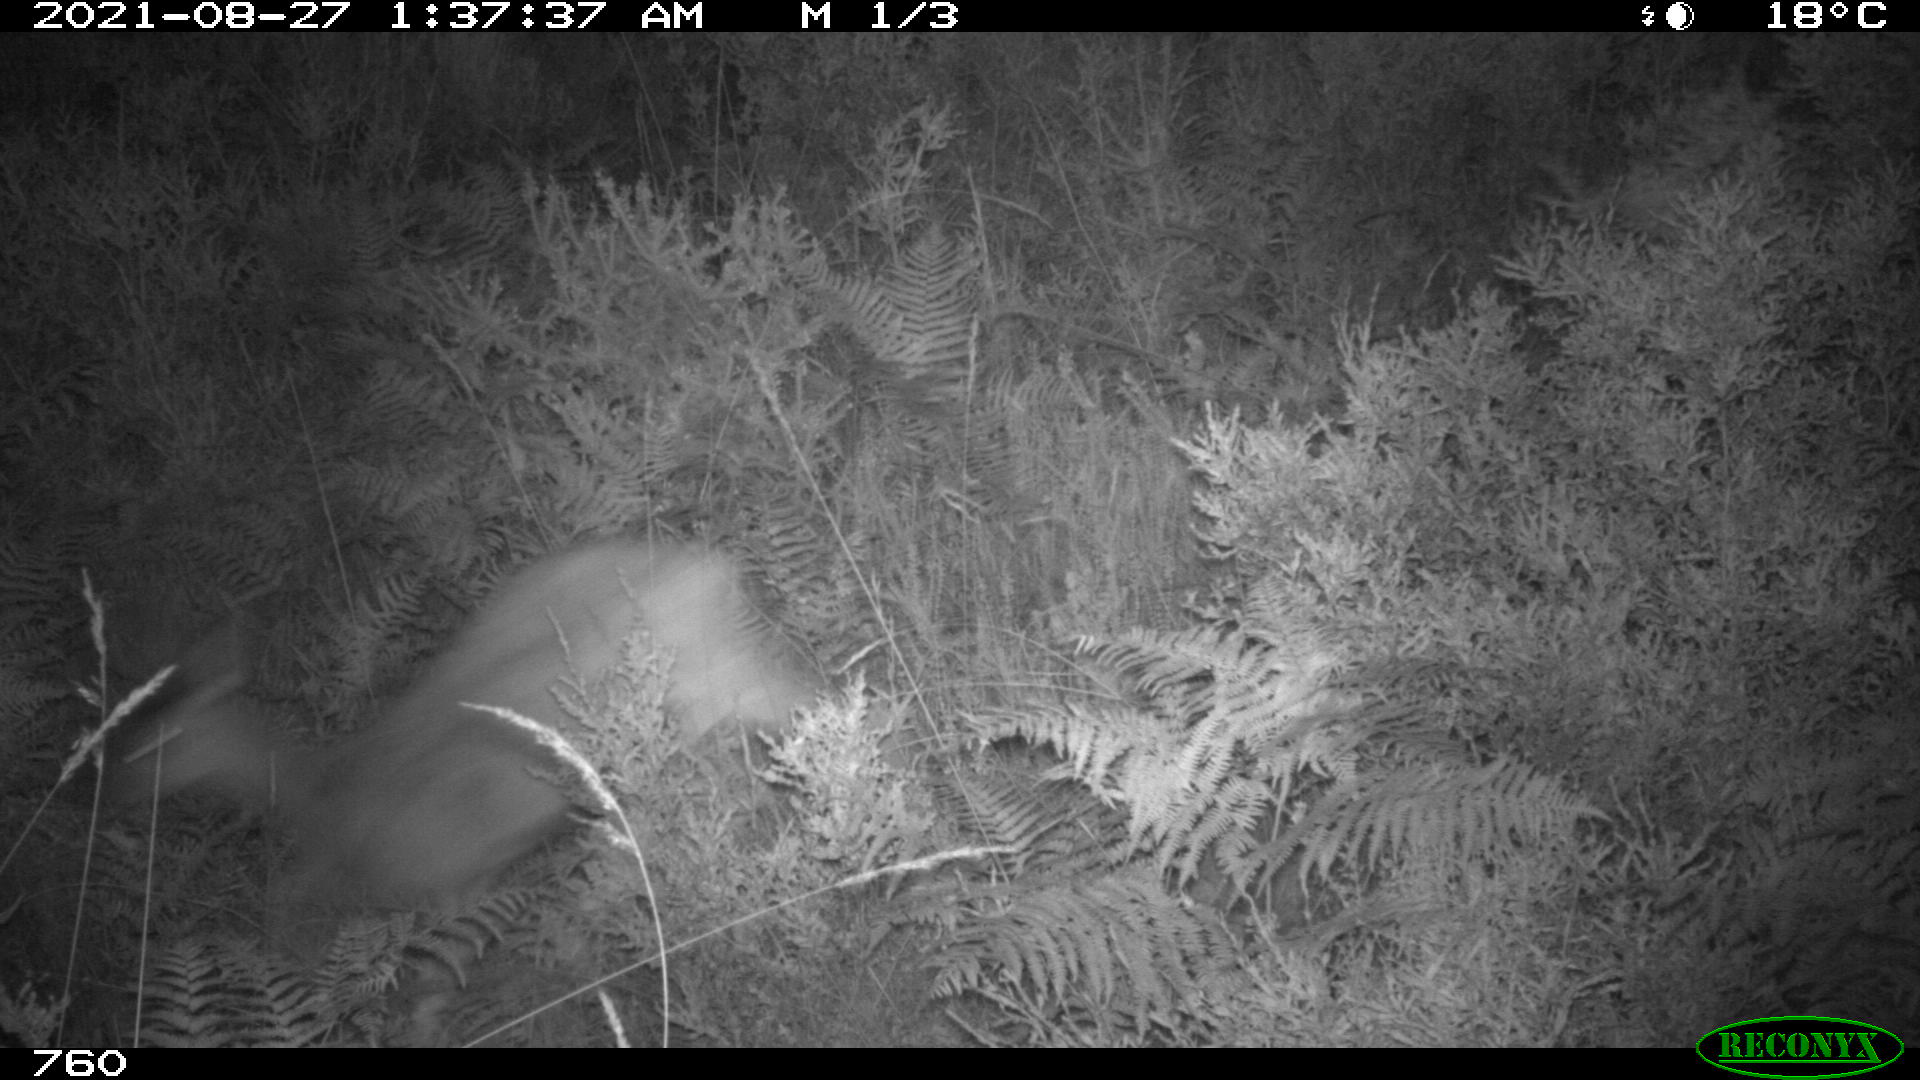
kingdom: Animalia
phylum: Chordata
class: Mammalia
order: Artiodactyla
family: Cervidae
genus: Capreolus
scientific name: Capreolus capreolus
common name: Western roe deer
